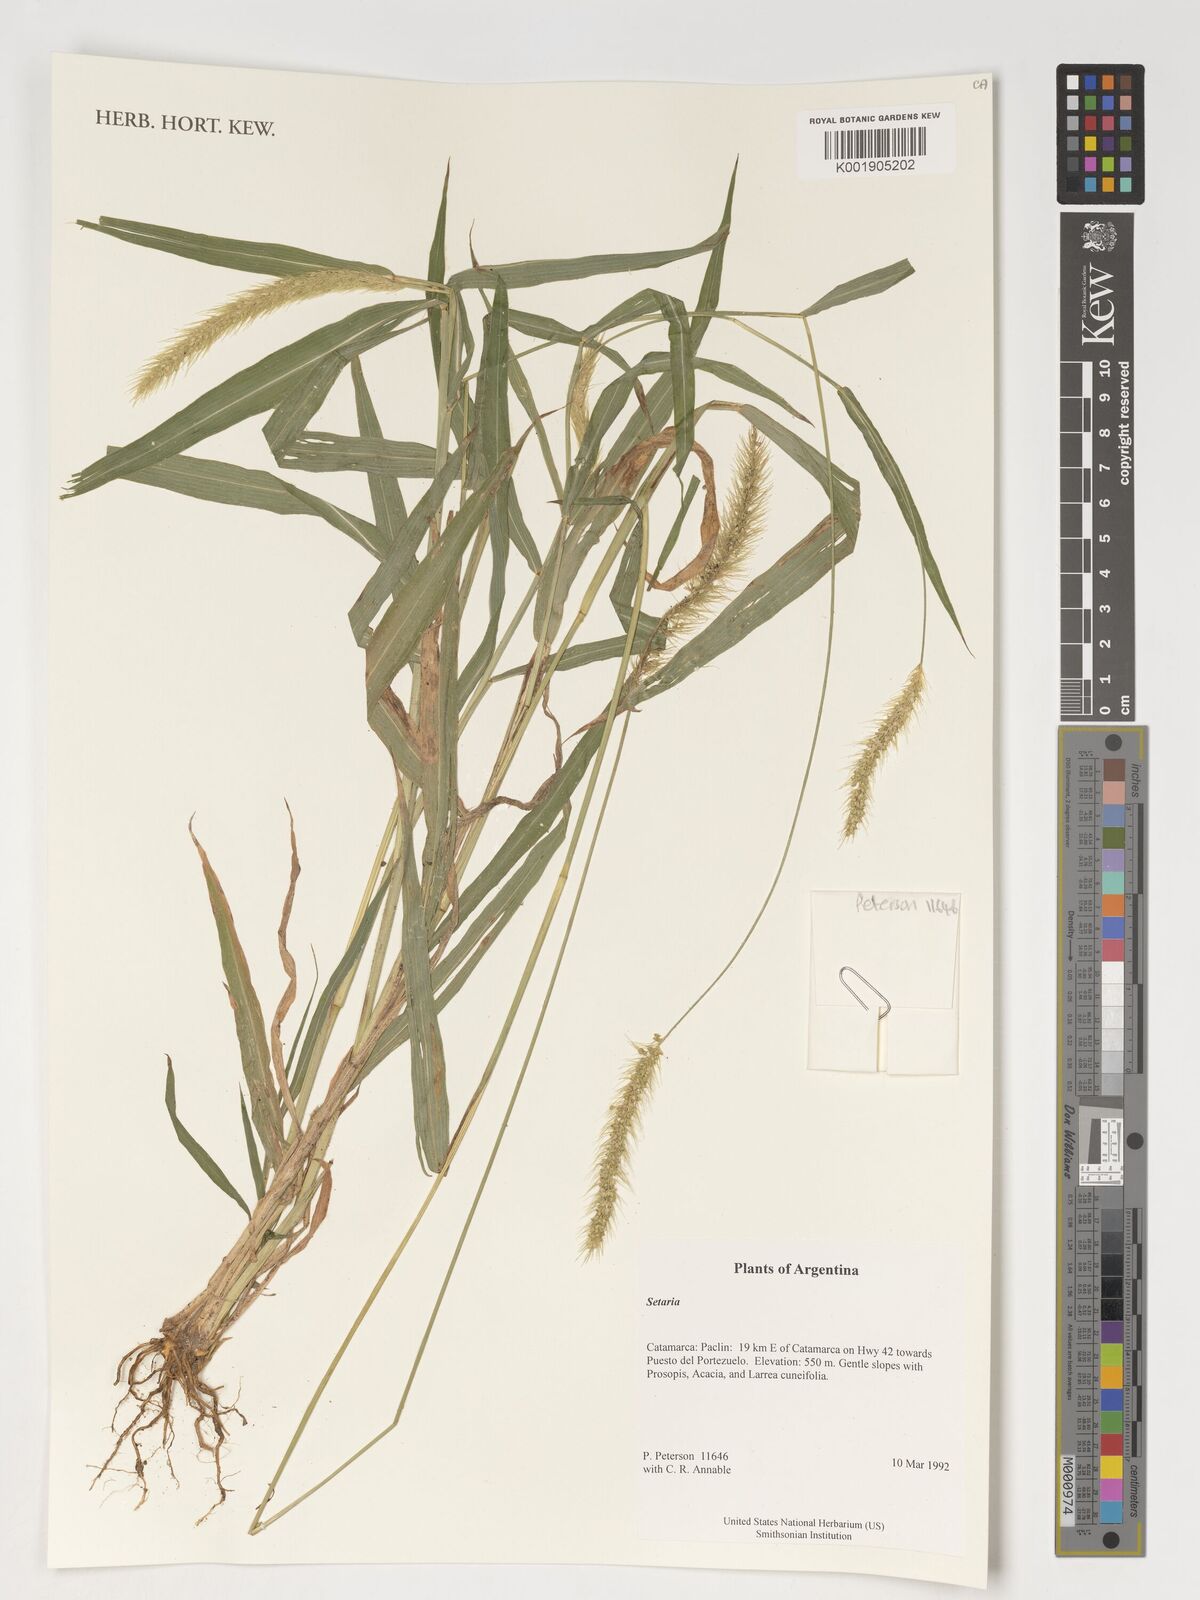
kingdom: Fungi
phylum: Ascomycota
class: Lecanoromycetes
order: Lecanorales
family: Parmeliaceae
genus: Bryoria
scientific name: Bryoria
